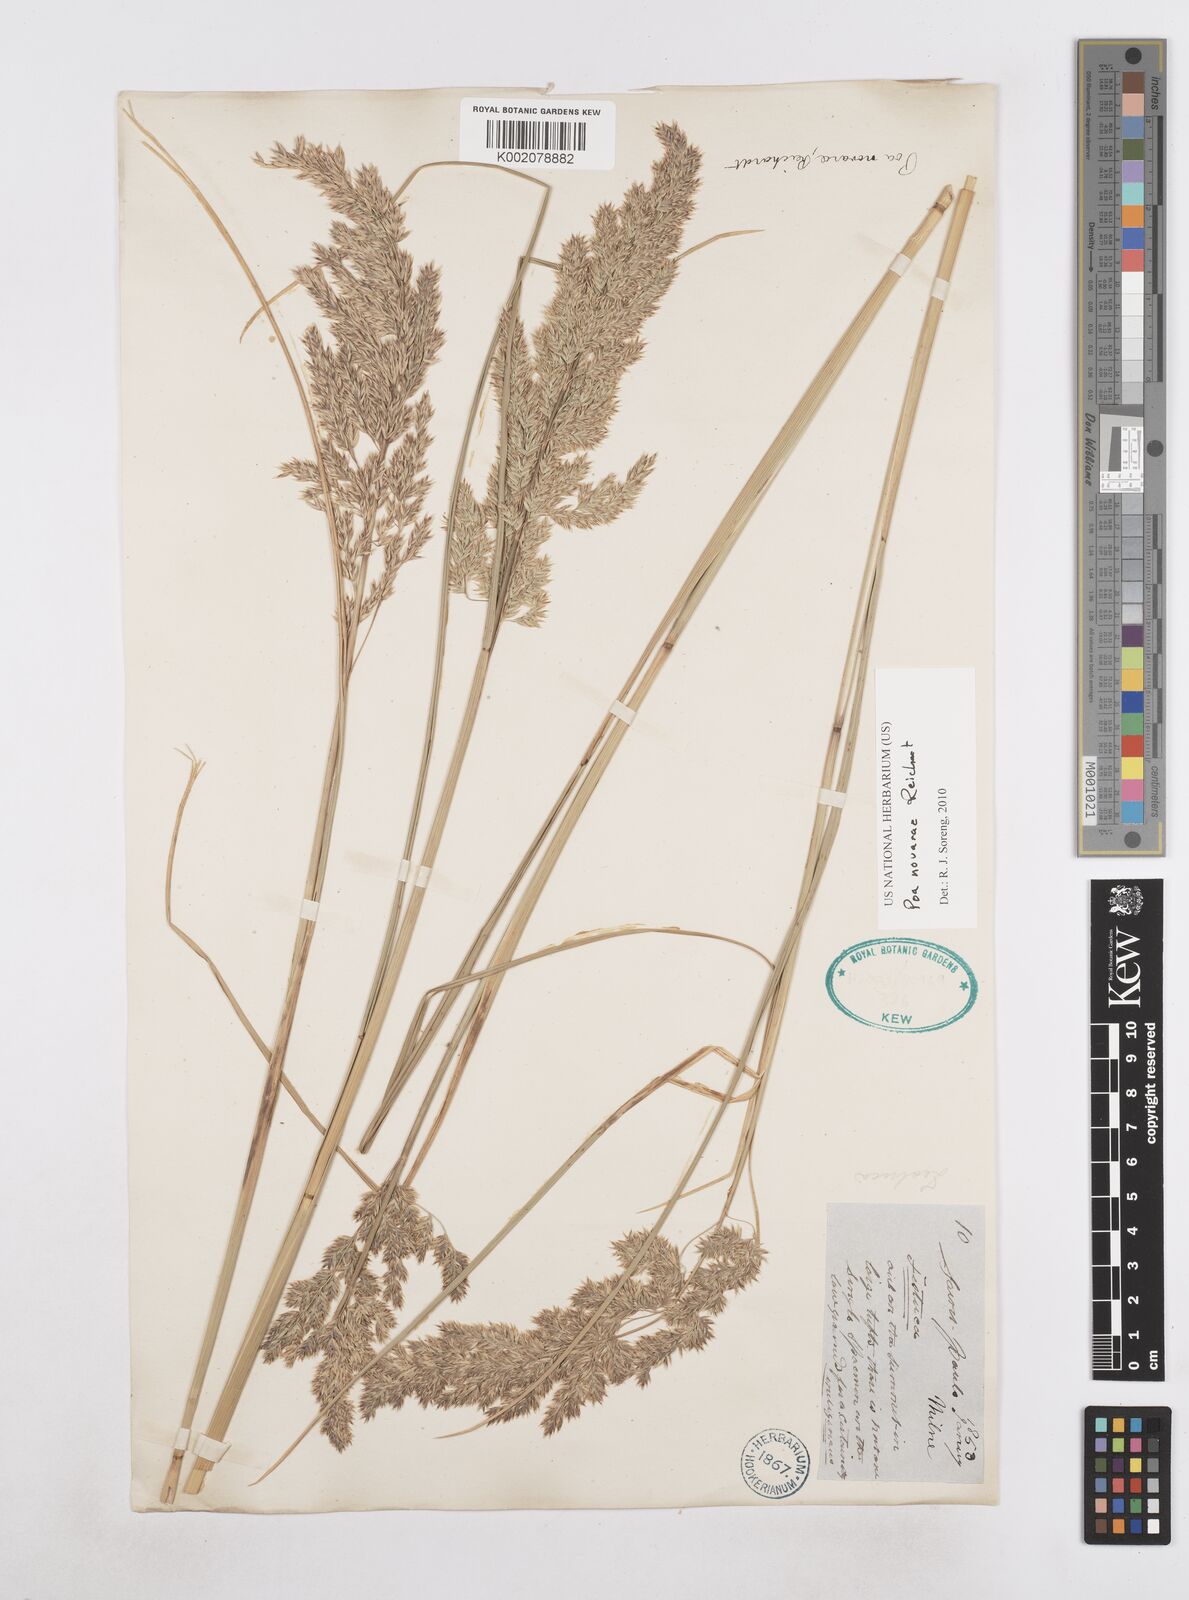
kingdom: Plantae
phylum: Tracheophyta
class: Liliopsida
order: Poales
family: Poaceae
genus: Poa
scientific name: Poa novarae
